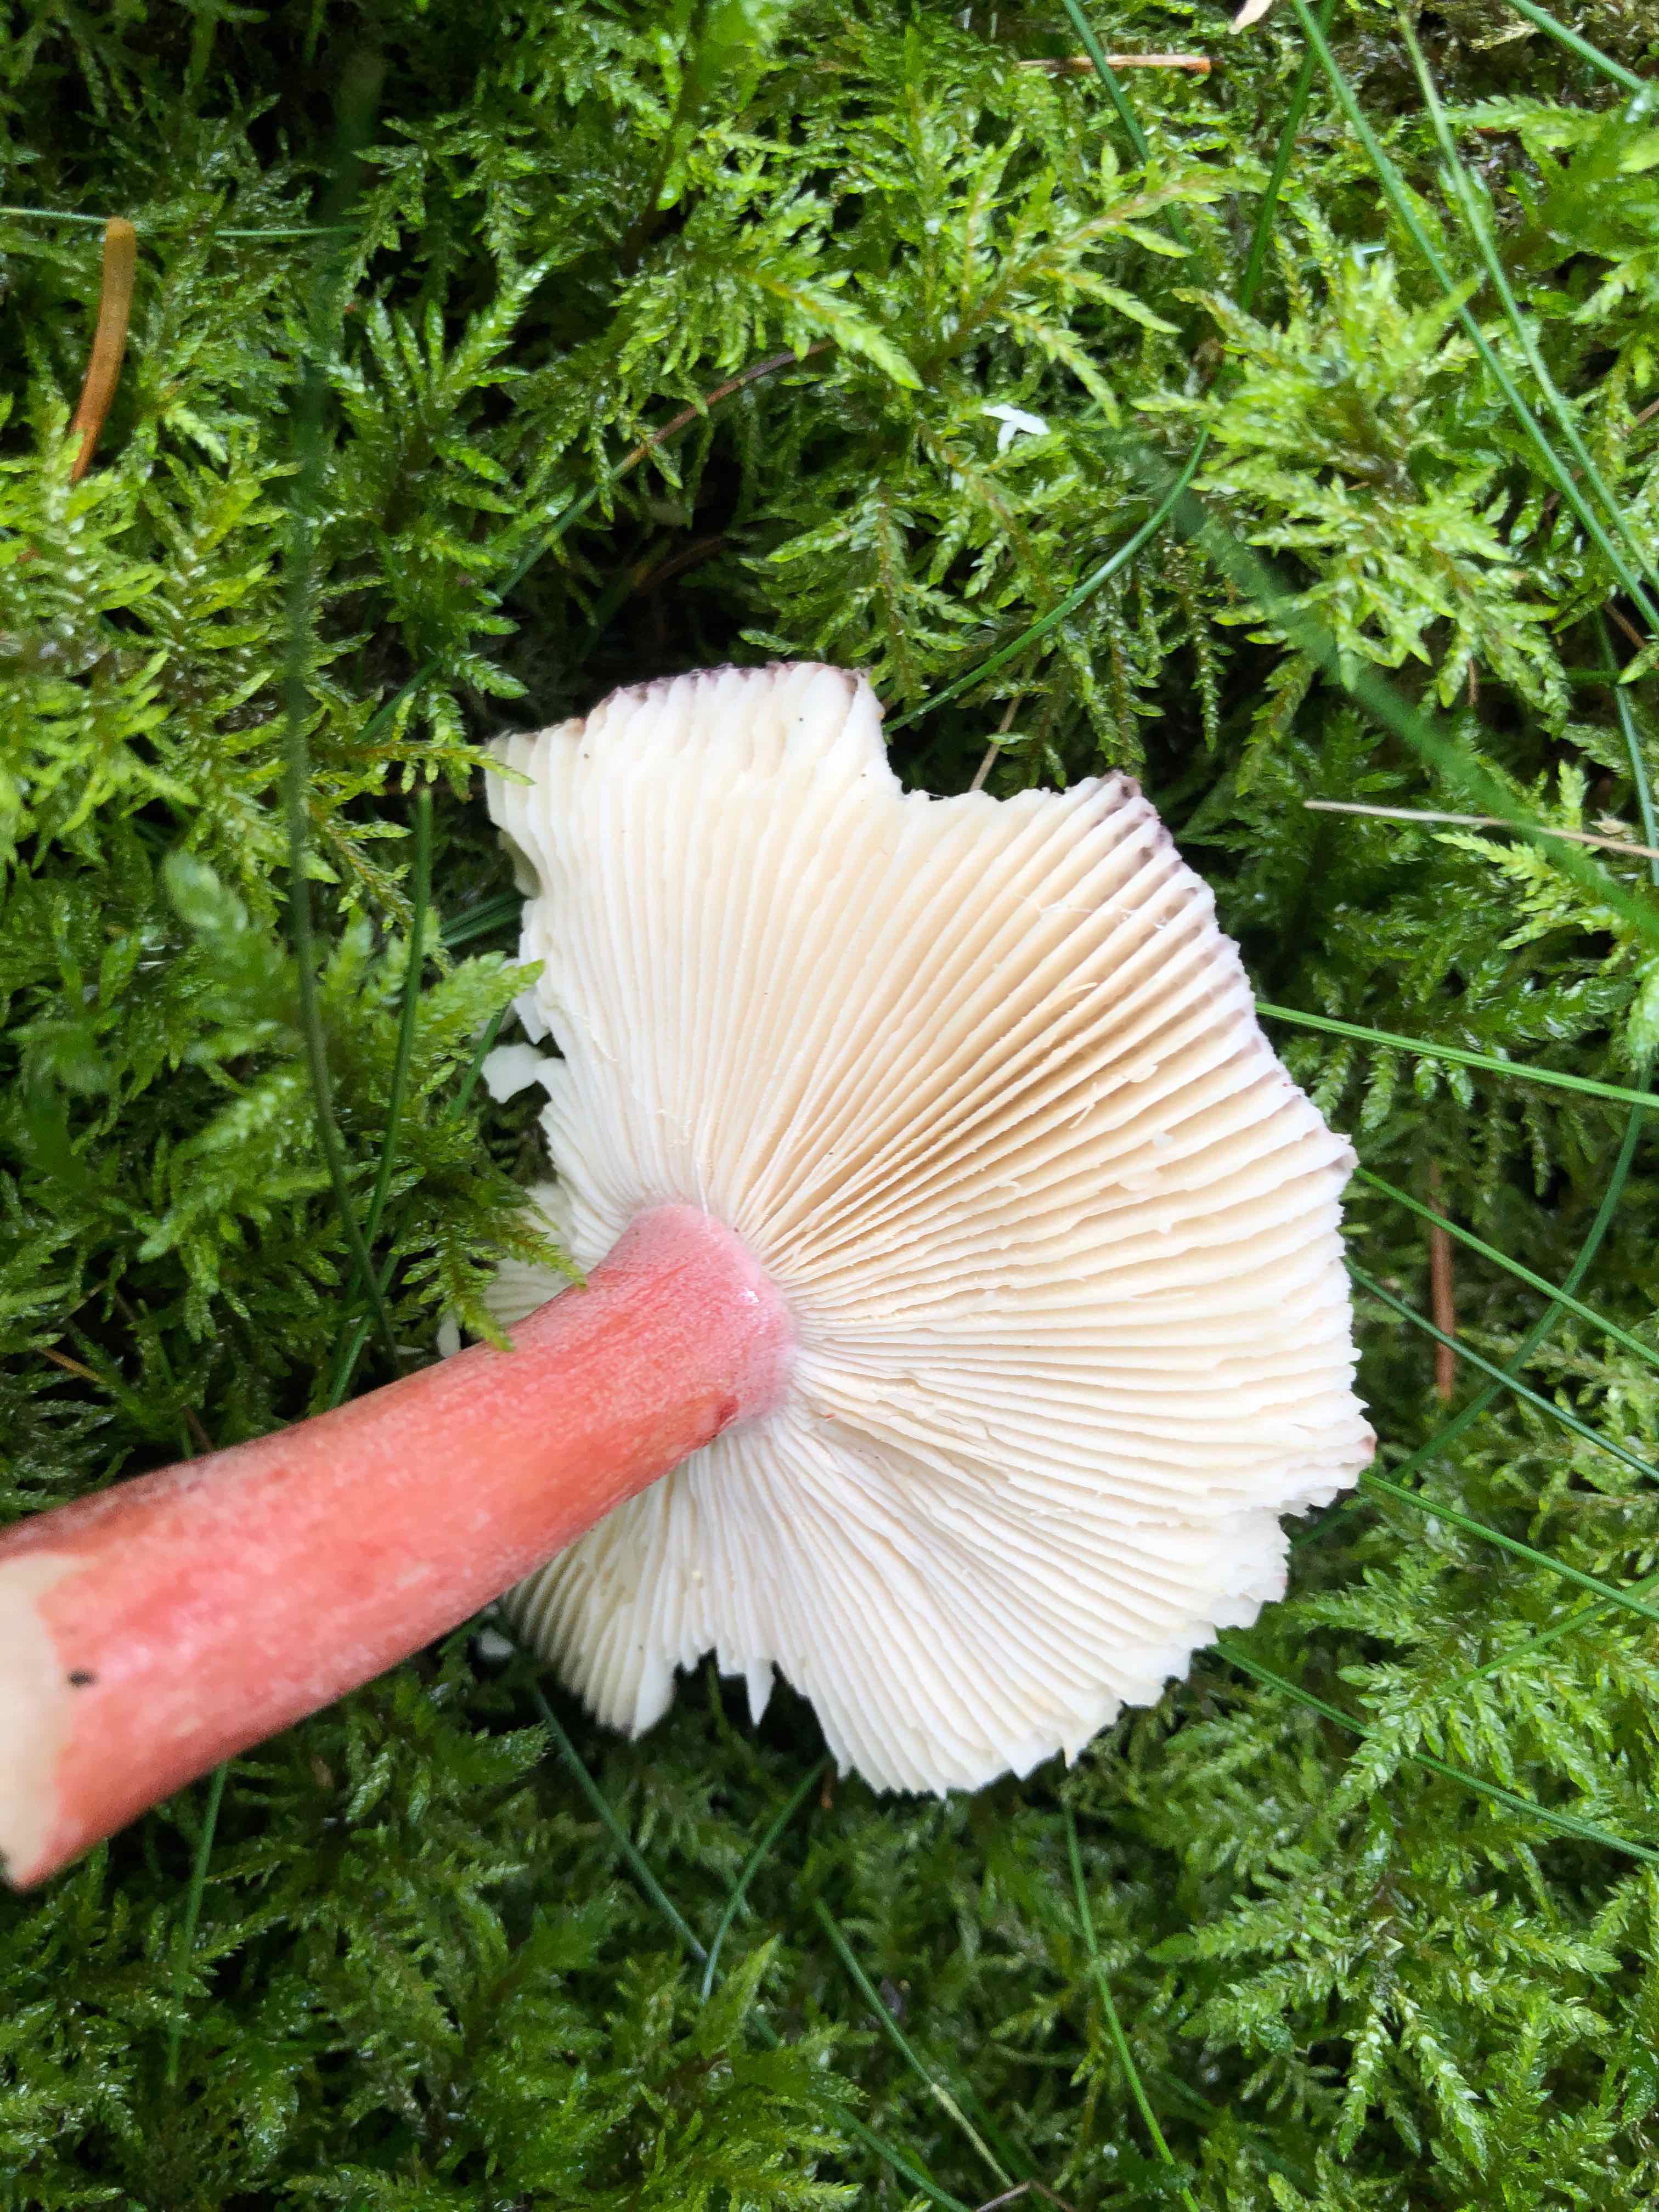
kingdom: Fungi
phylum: Basidiomycota
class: Agaricomycetes
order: Russulales
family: Russulaceae
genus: Russula
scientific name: Russula queletii
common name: Quélets skørhat
